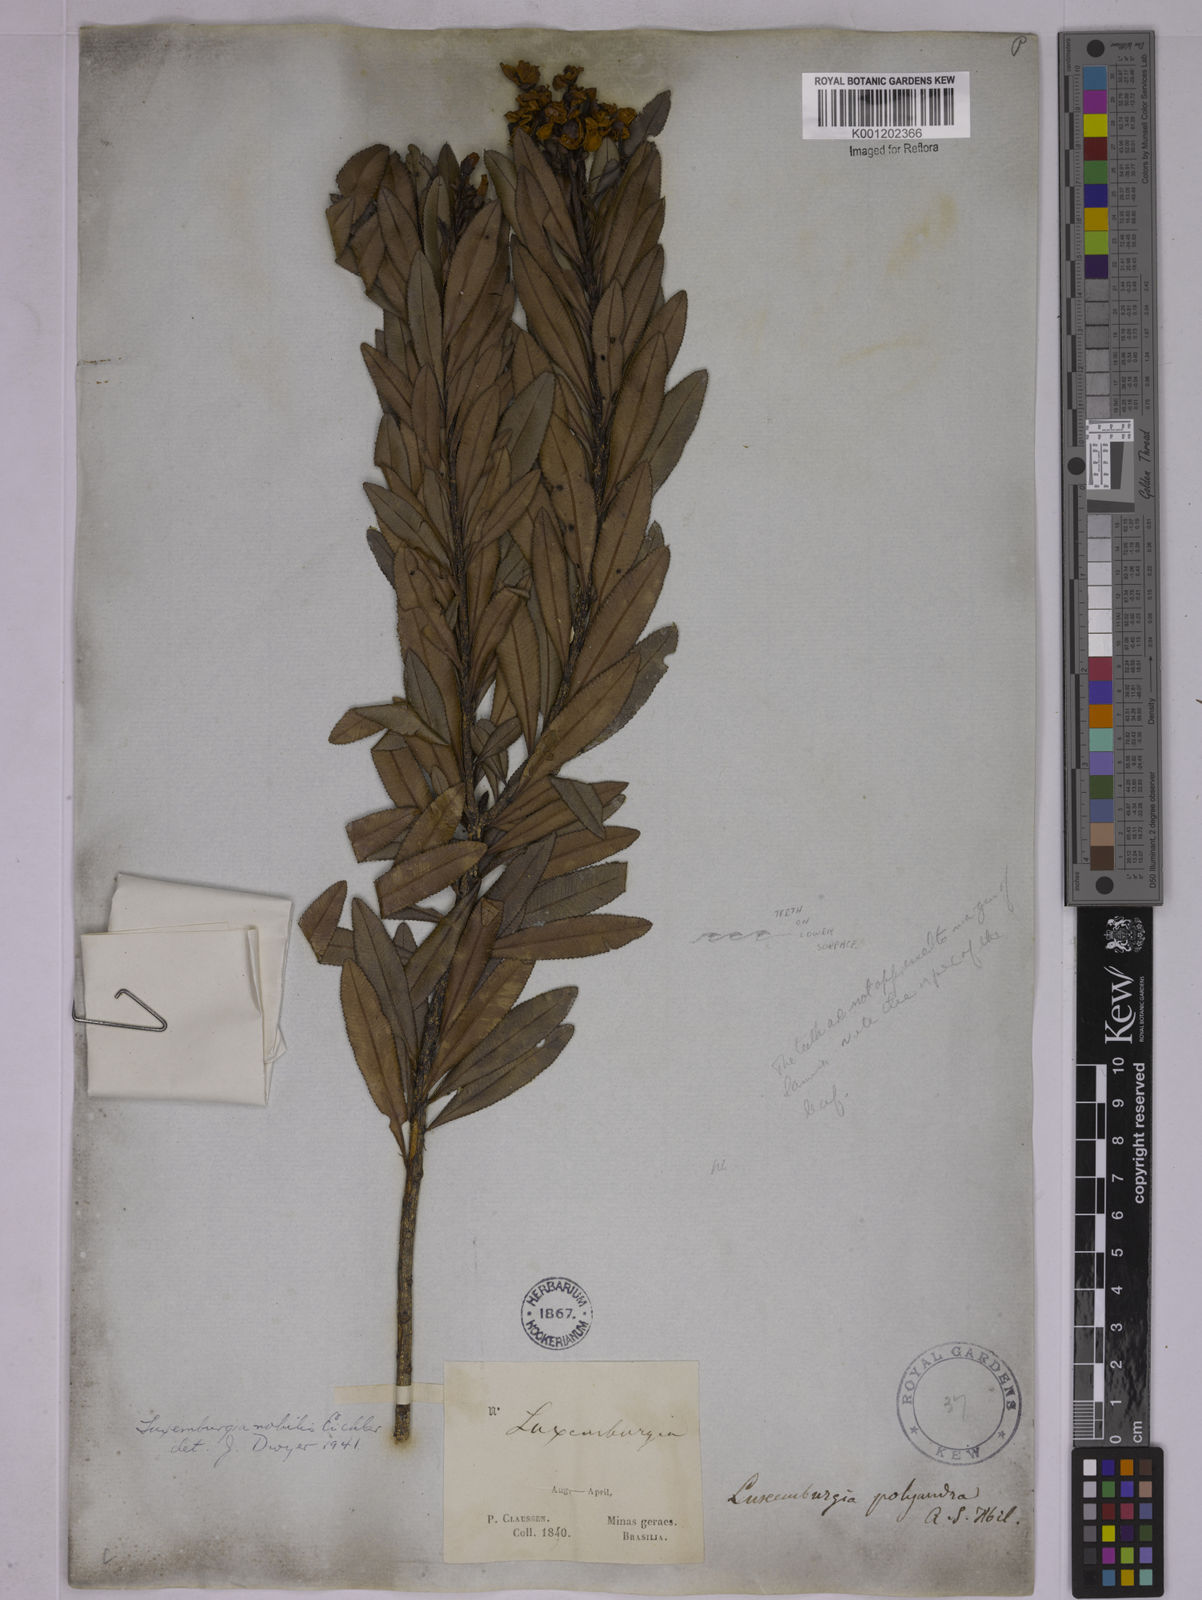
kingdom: Plantae
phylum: Tracheophyta
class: Magnoliopsida
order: Malpighiales
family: Ochnaceae
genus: Luxemburgia
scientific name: Luxemburgia nobilis
